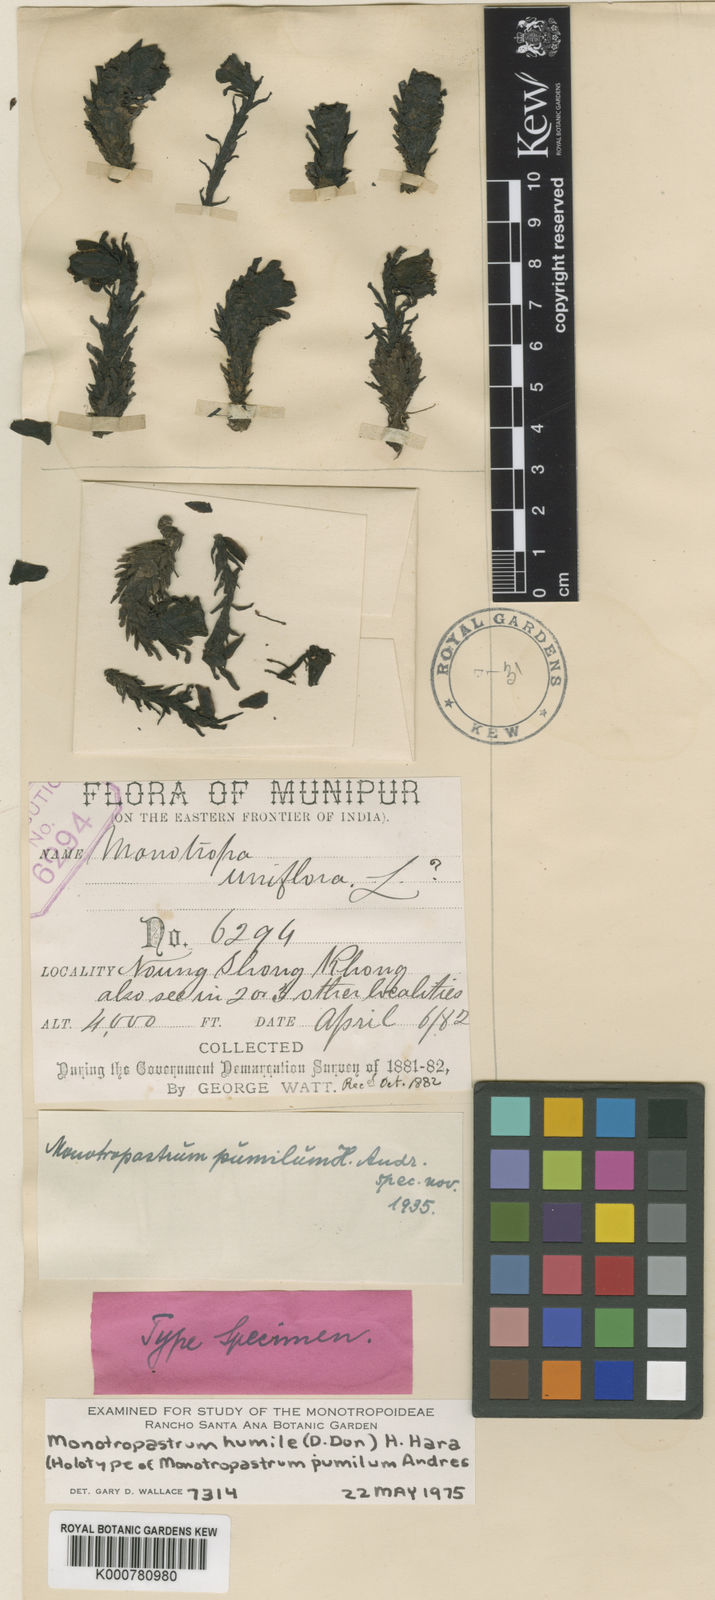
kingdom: Plantae
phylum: Tracheophyta
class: Magnoliopsida
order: Ericales
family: Ericaceae
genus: Monotropastrum
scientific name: Monotropastrum humile
